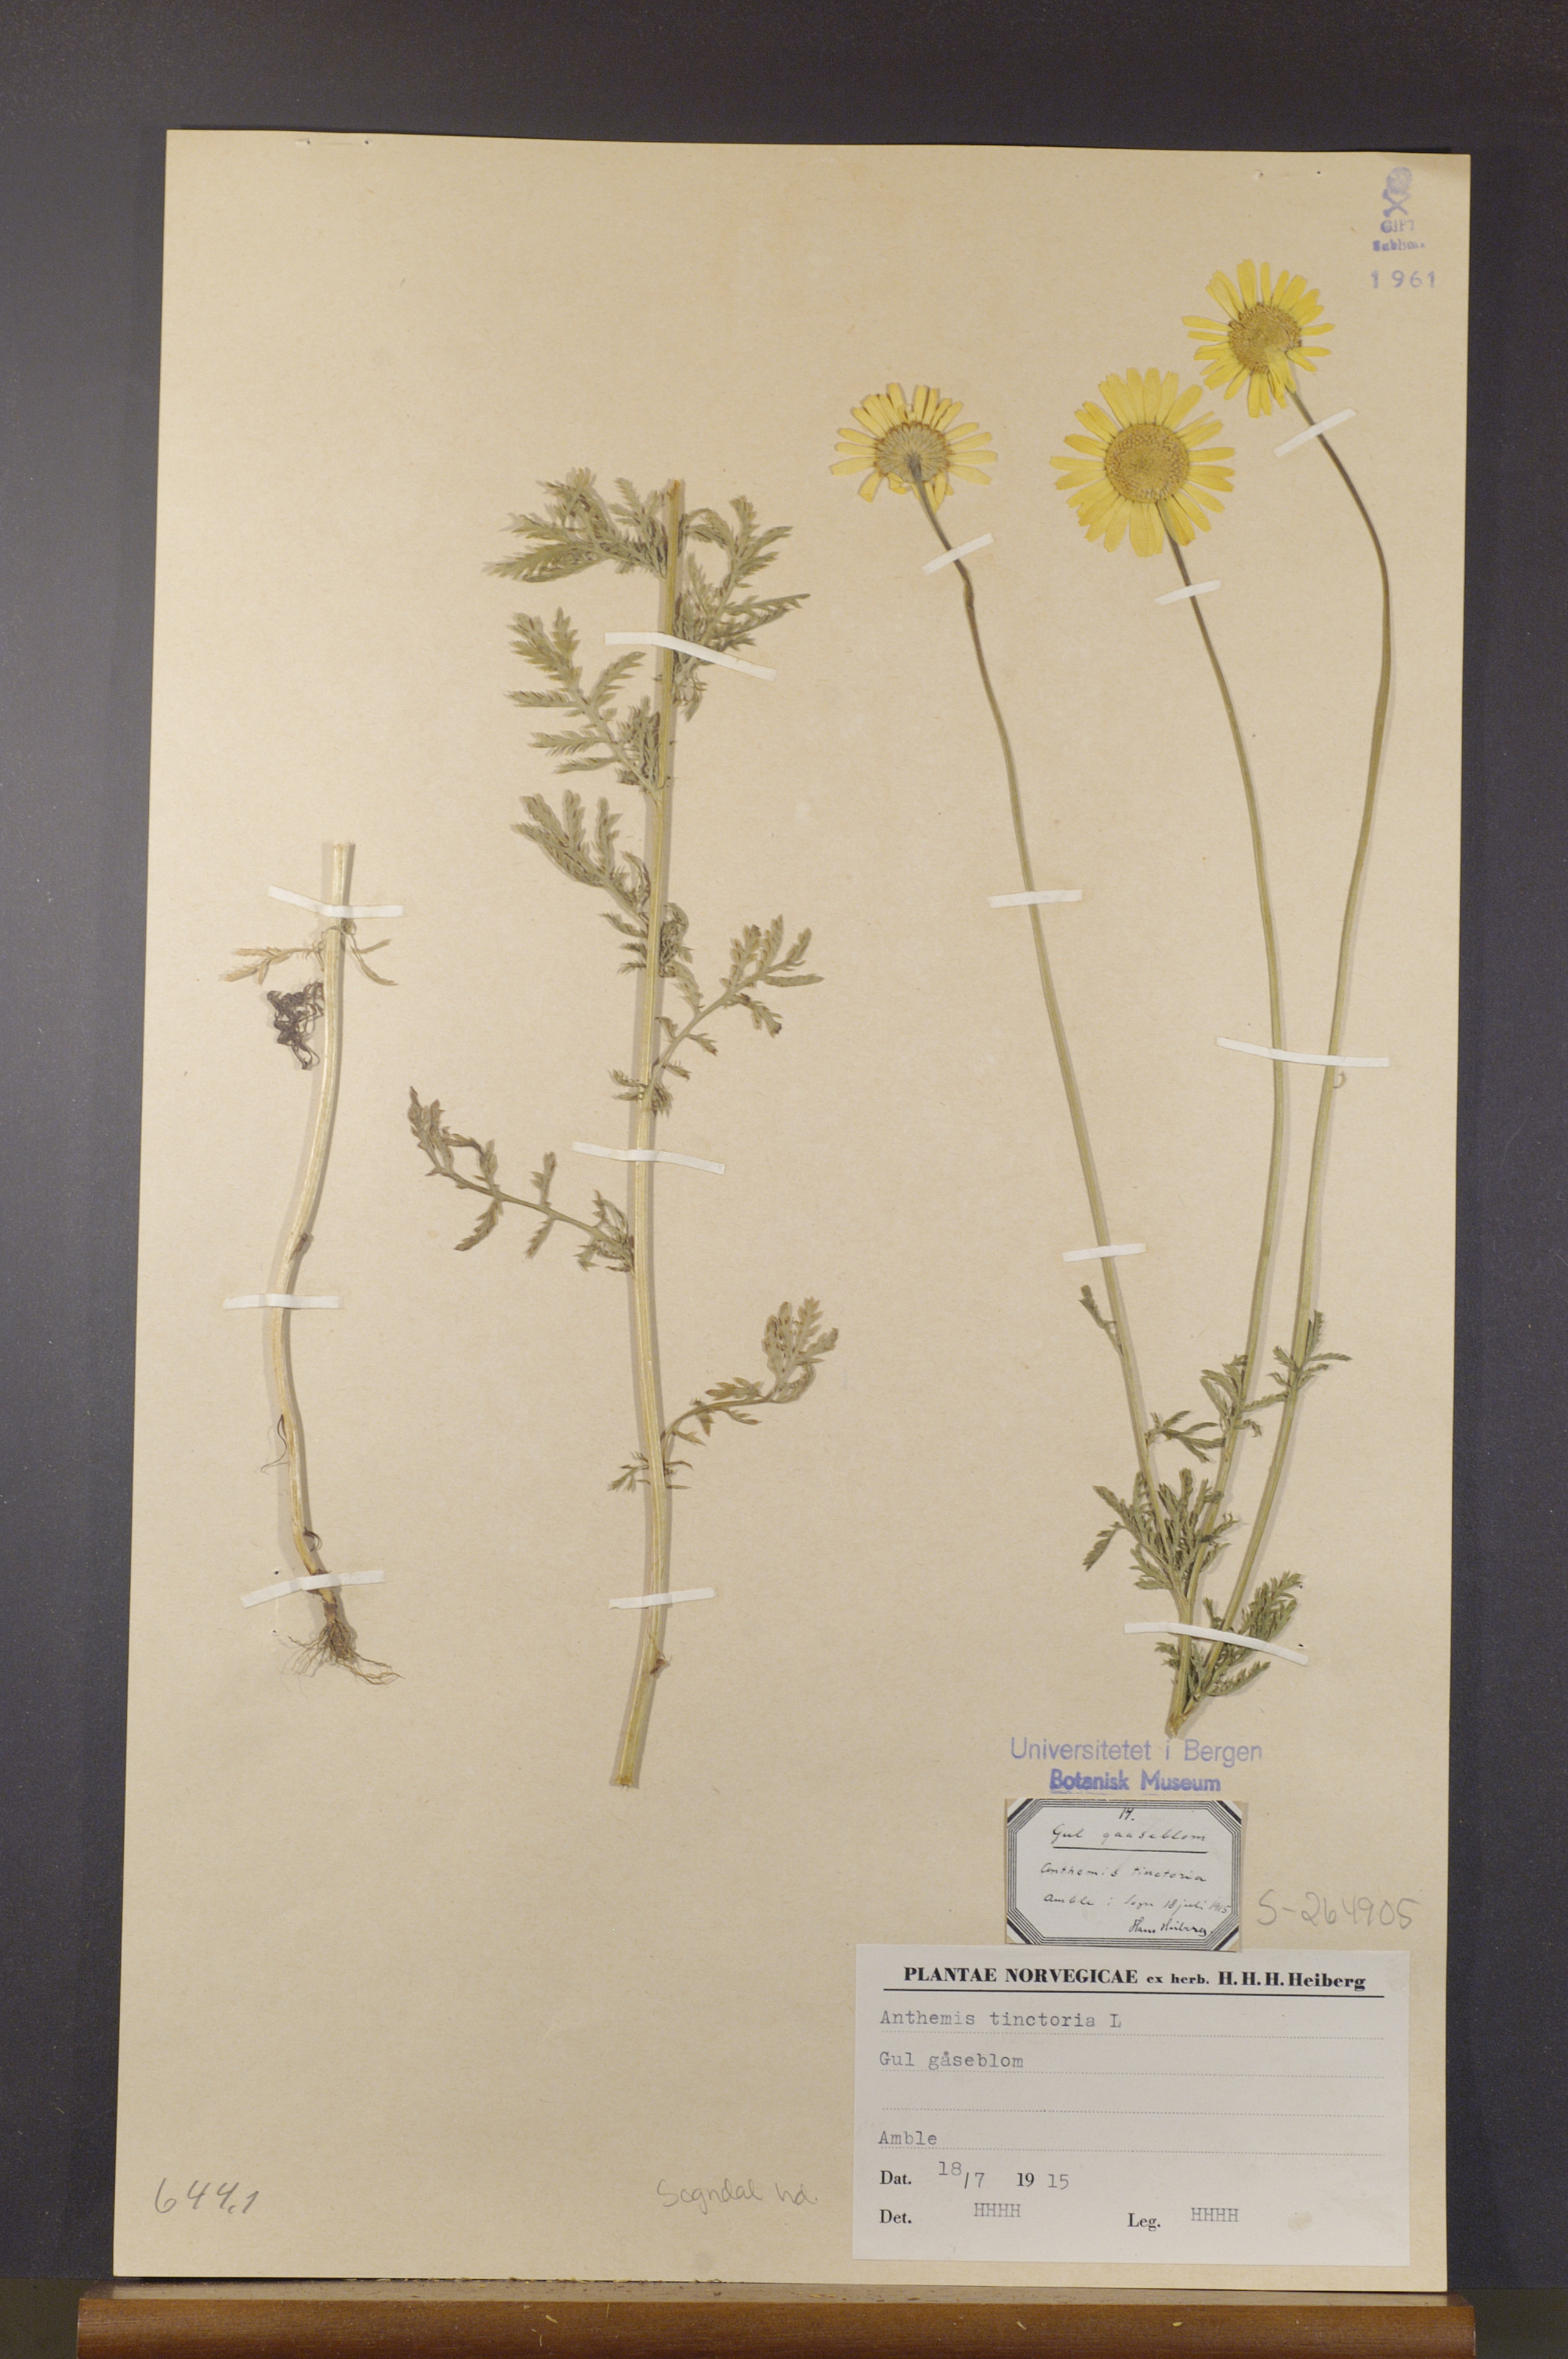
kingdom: Plantae
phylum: Tracheophyta
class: Magnoliopsida
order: Asterales
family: Asteraceae
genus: Cota
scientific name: Cota tinctoria
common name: Golden chamomile
